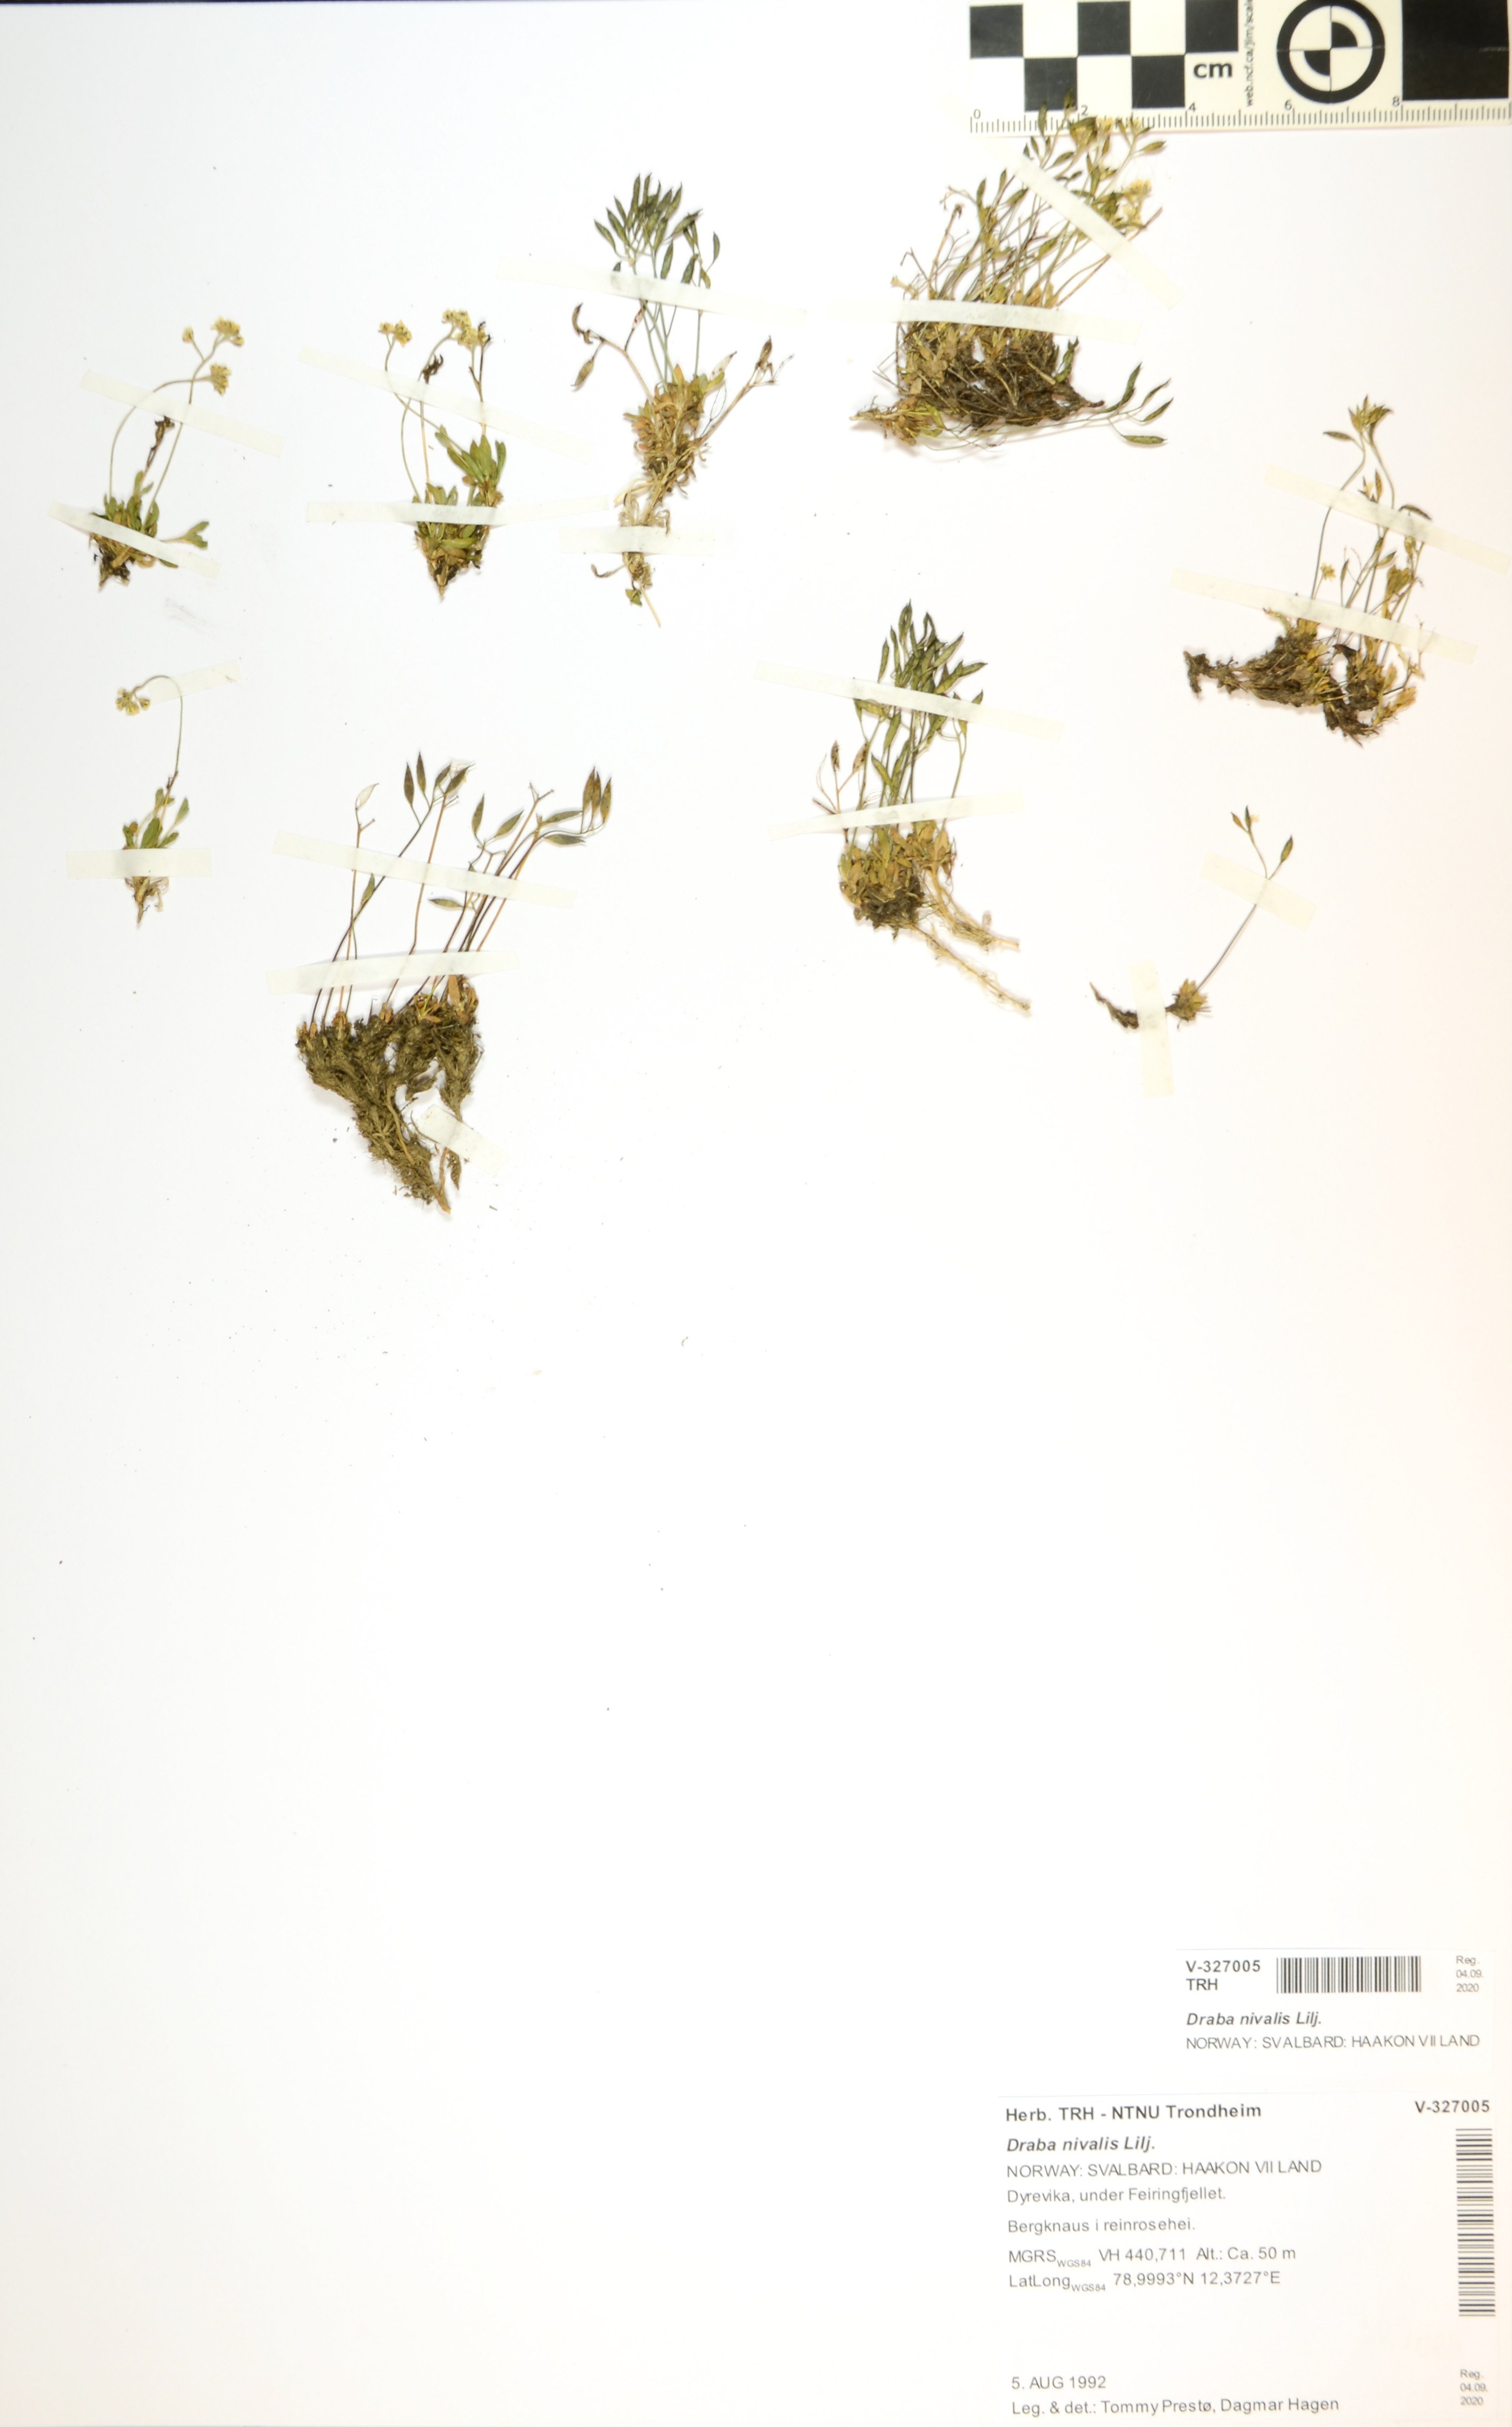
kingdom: Plantae
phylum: Tracheophyta
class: Magnoliopsida
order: Brassicales
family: Brassicaceae
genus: Draba
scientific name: Draba nivalis
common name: Snow draba
